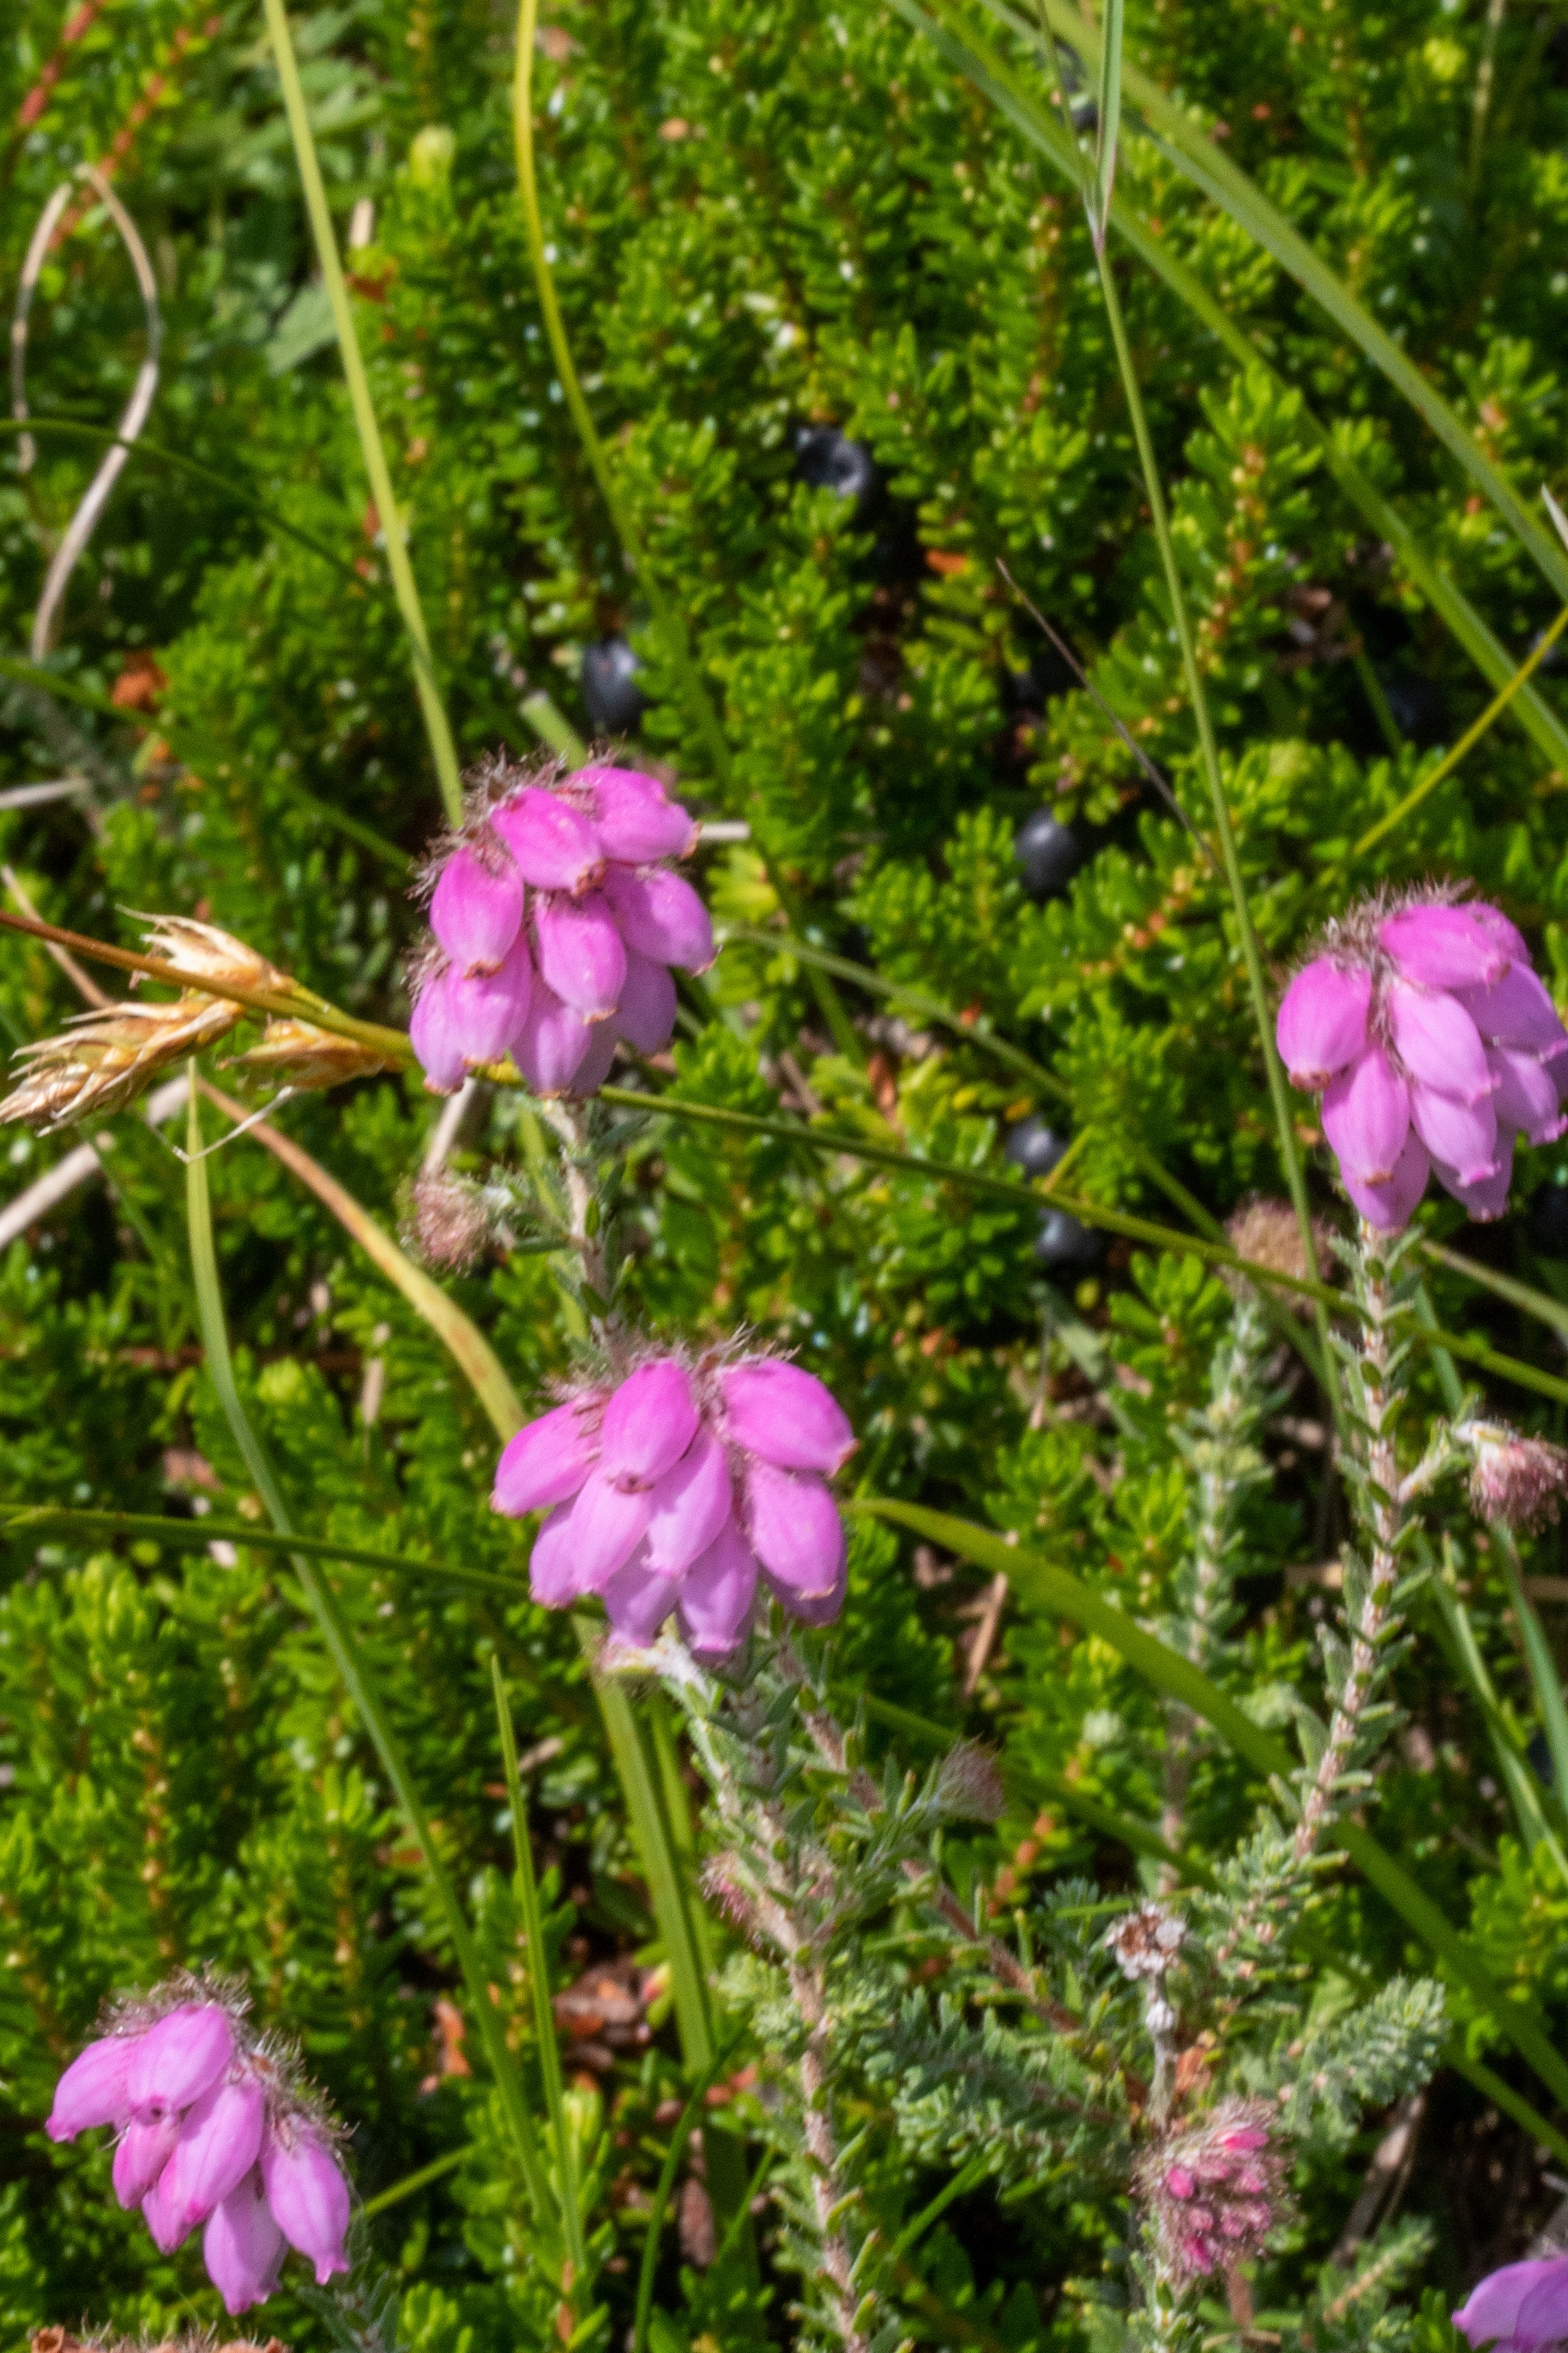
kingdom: Plantae
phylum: Tracheophyta
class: Magnoliopsida
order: Ericales
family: Ericaceae
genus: Erica
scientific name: Erica tetralix
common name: Klokkelyng
